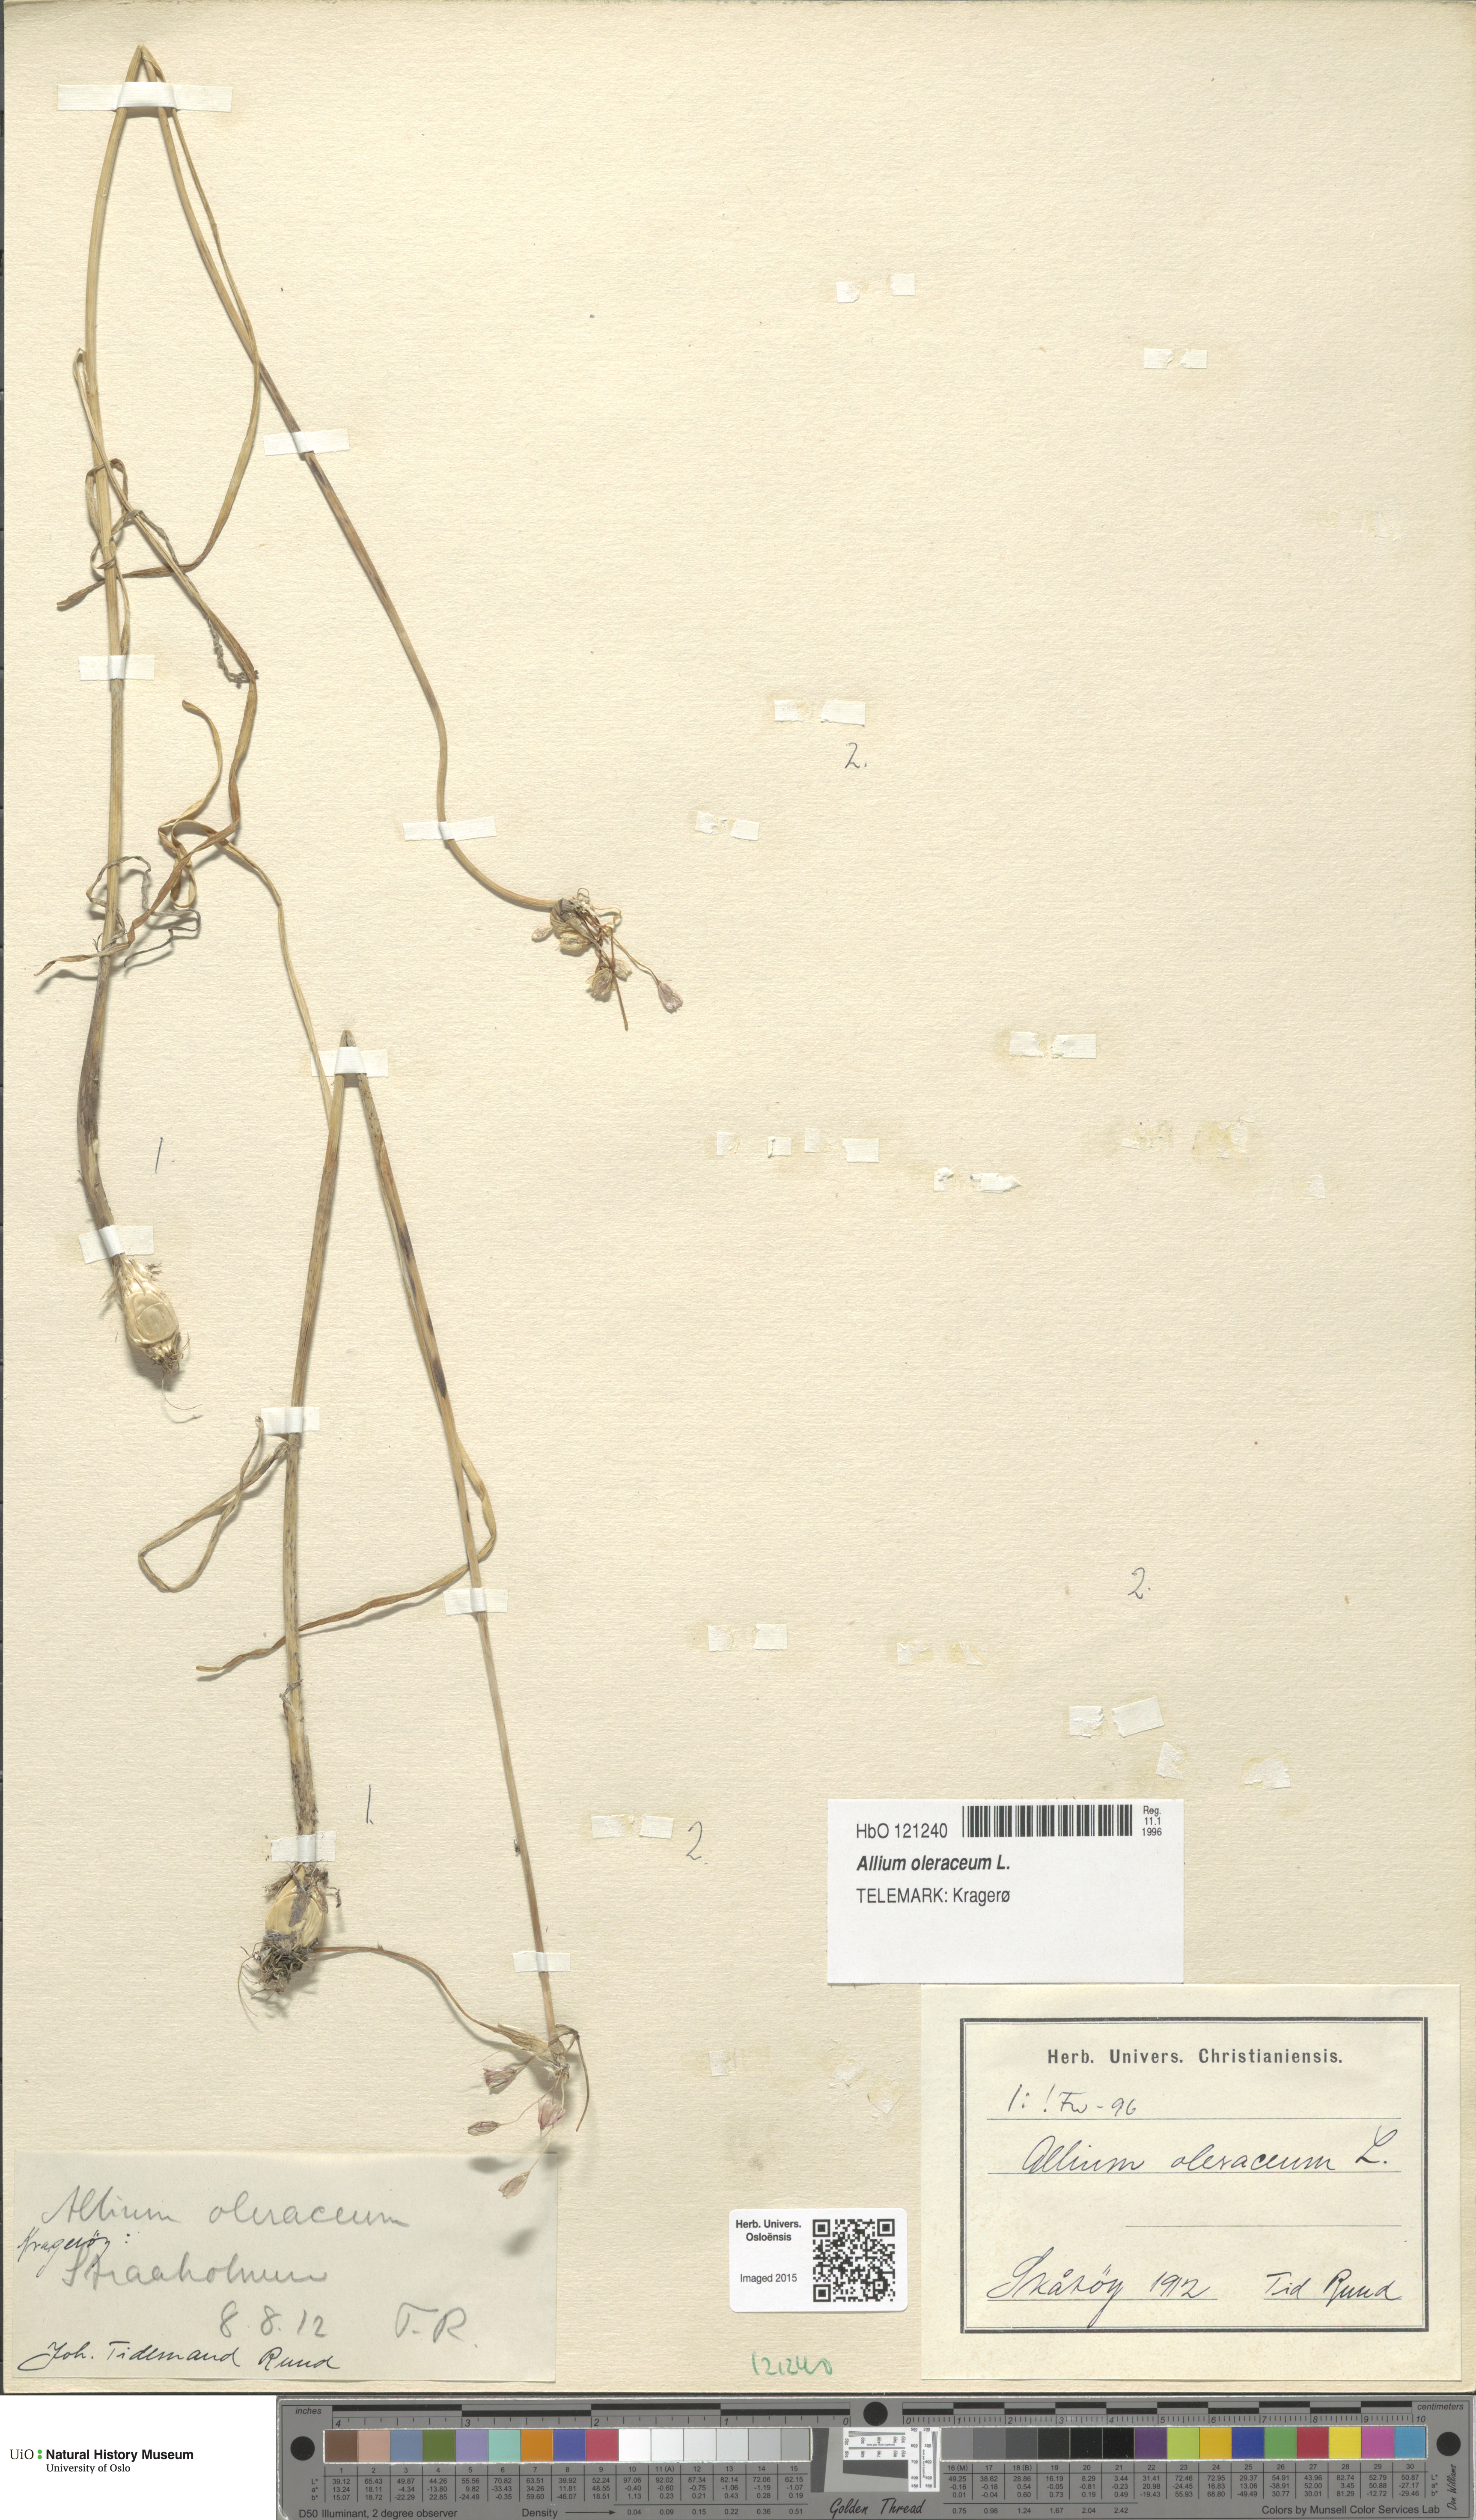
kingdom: Plantae
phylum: Tracheophyta
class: Liliopsida
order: Asparagales
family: Amaryllidaceae
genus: Allium
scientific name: Allium oleraceum
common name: Field garlic
